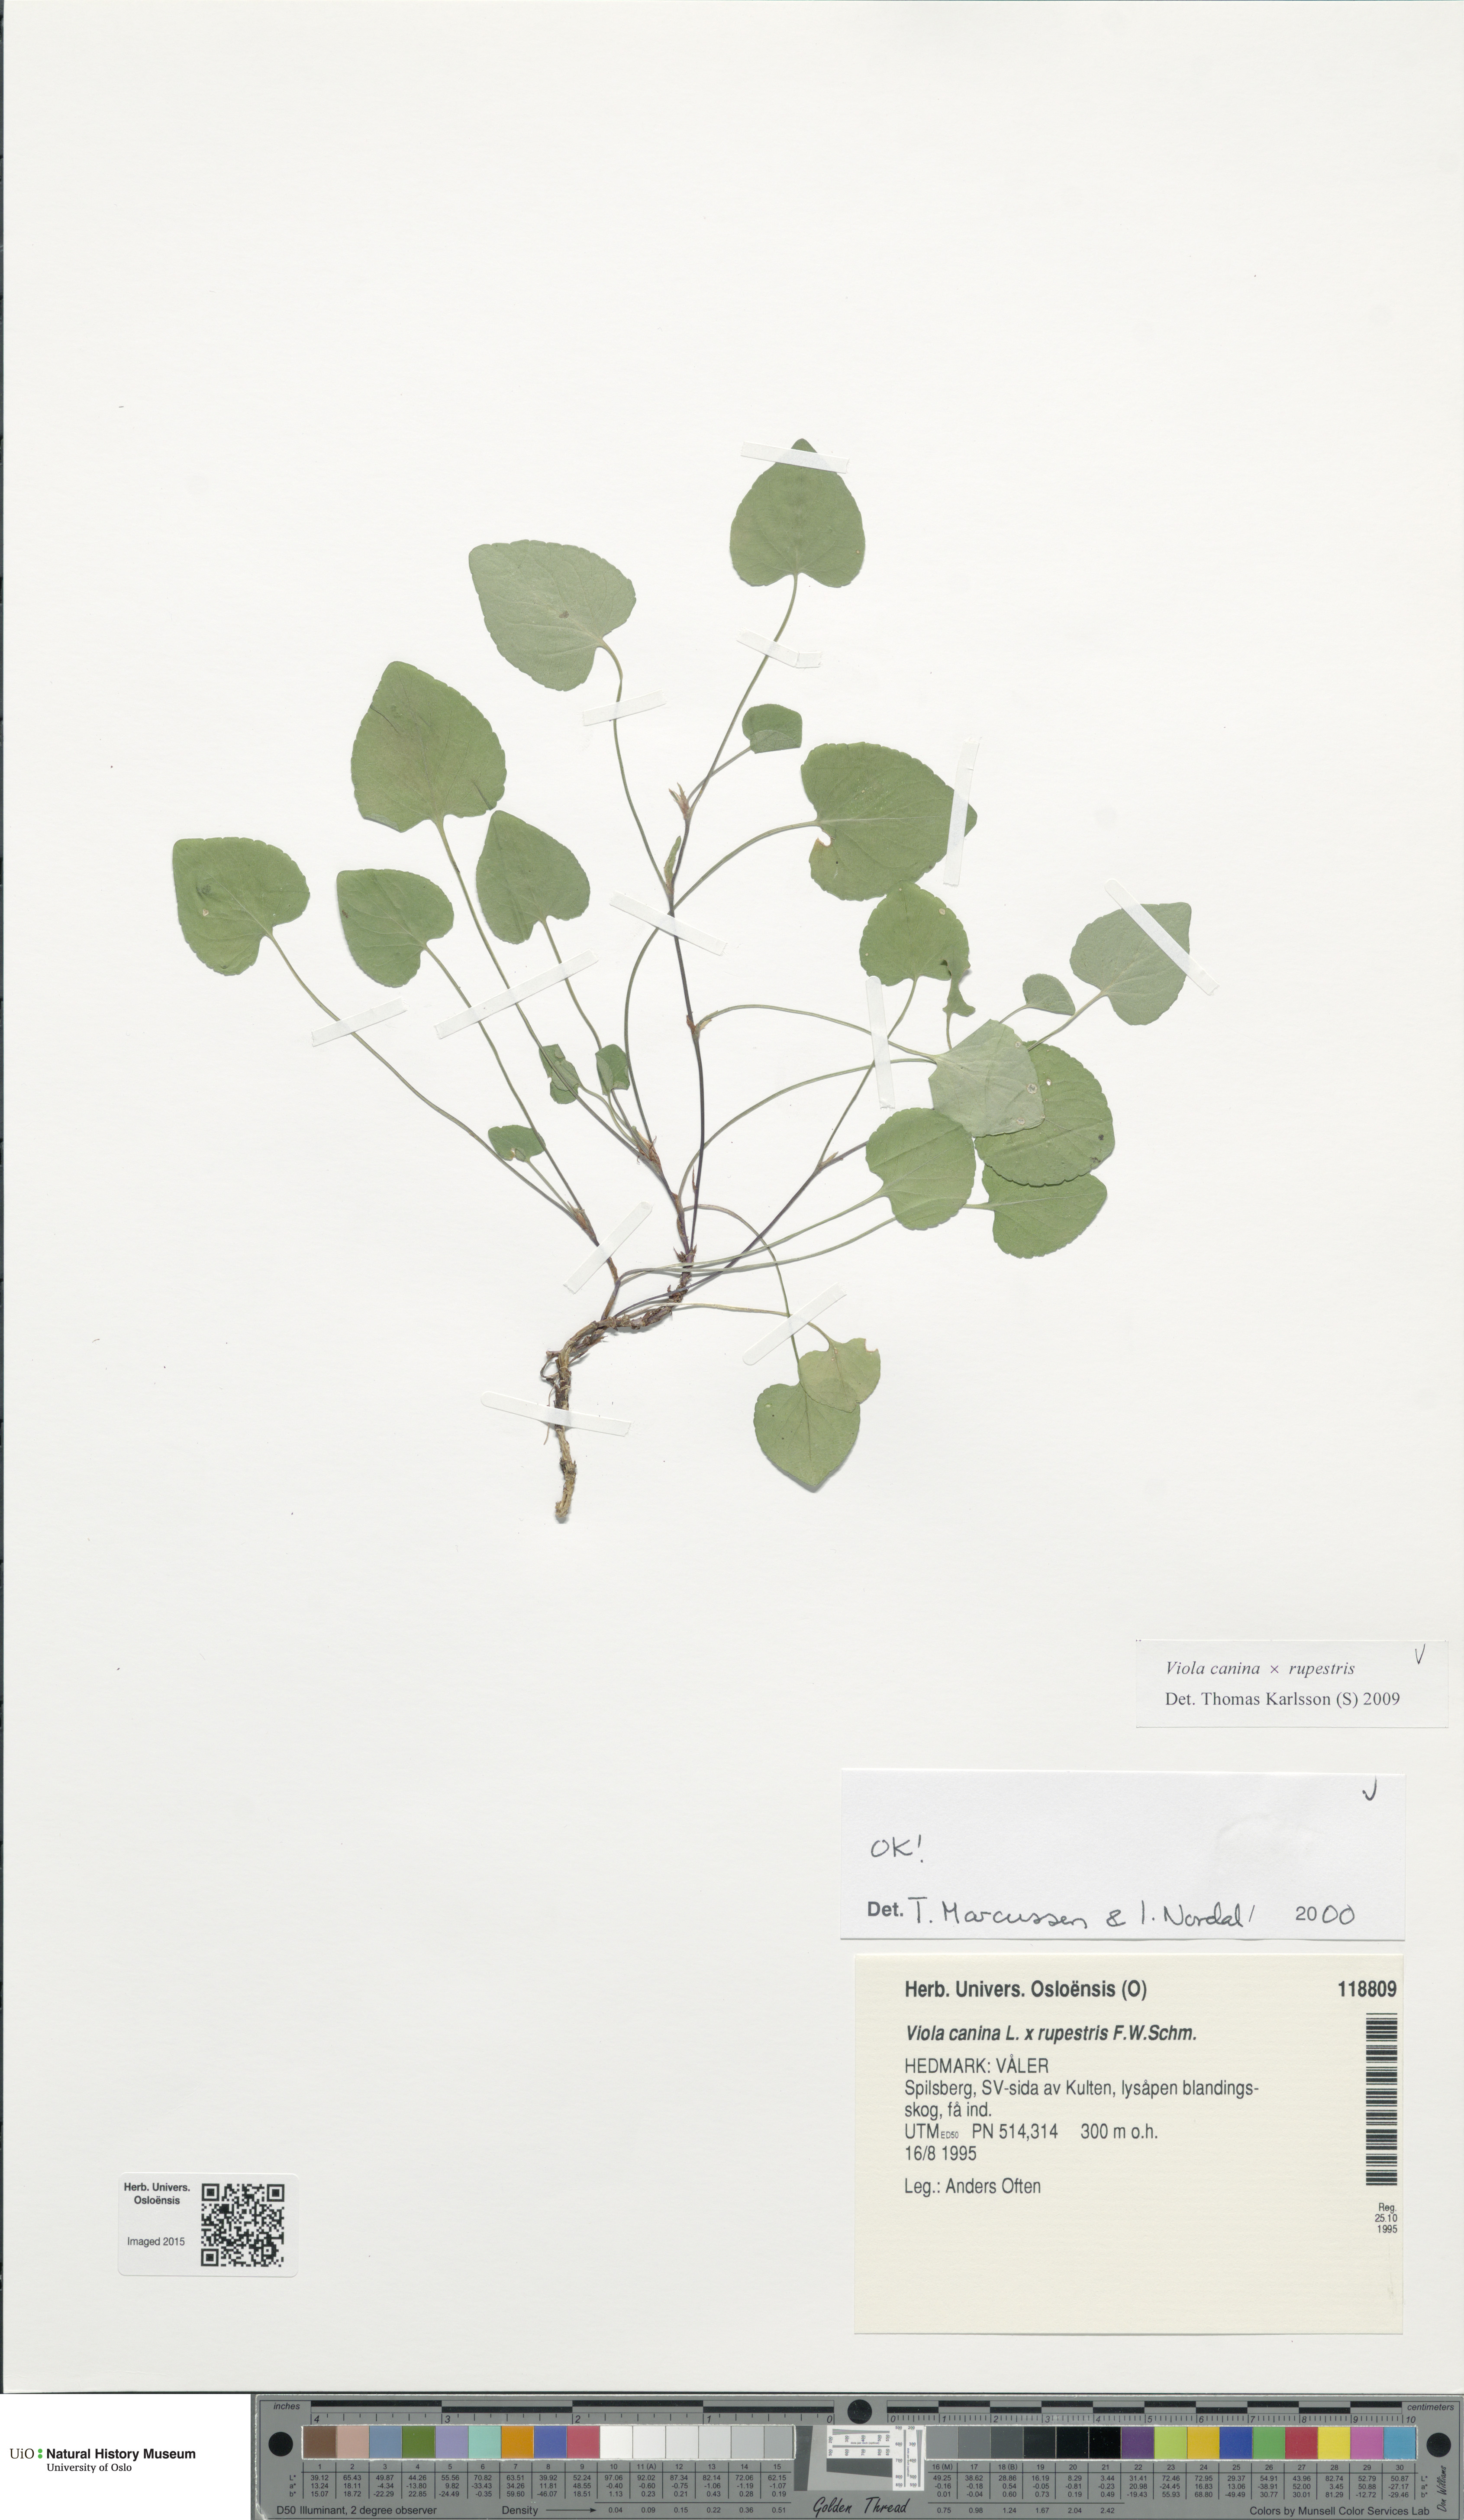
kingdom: Plantae
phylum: Tracheophyta
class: Magnoliopsida
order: Malpighiales
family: Violaceae
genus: Viola
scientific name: Viola
